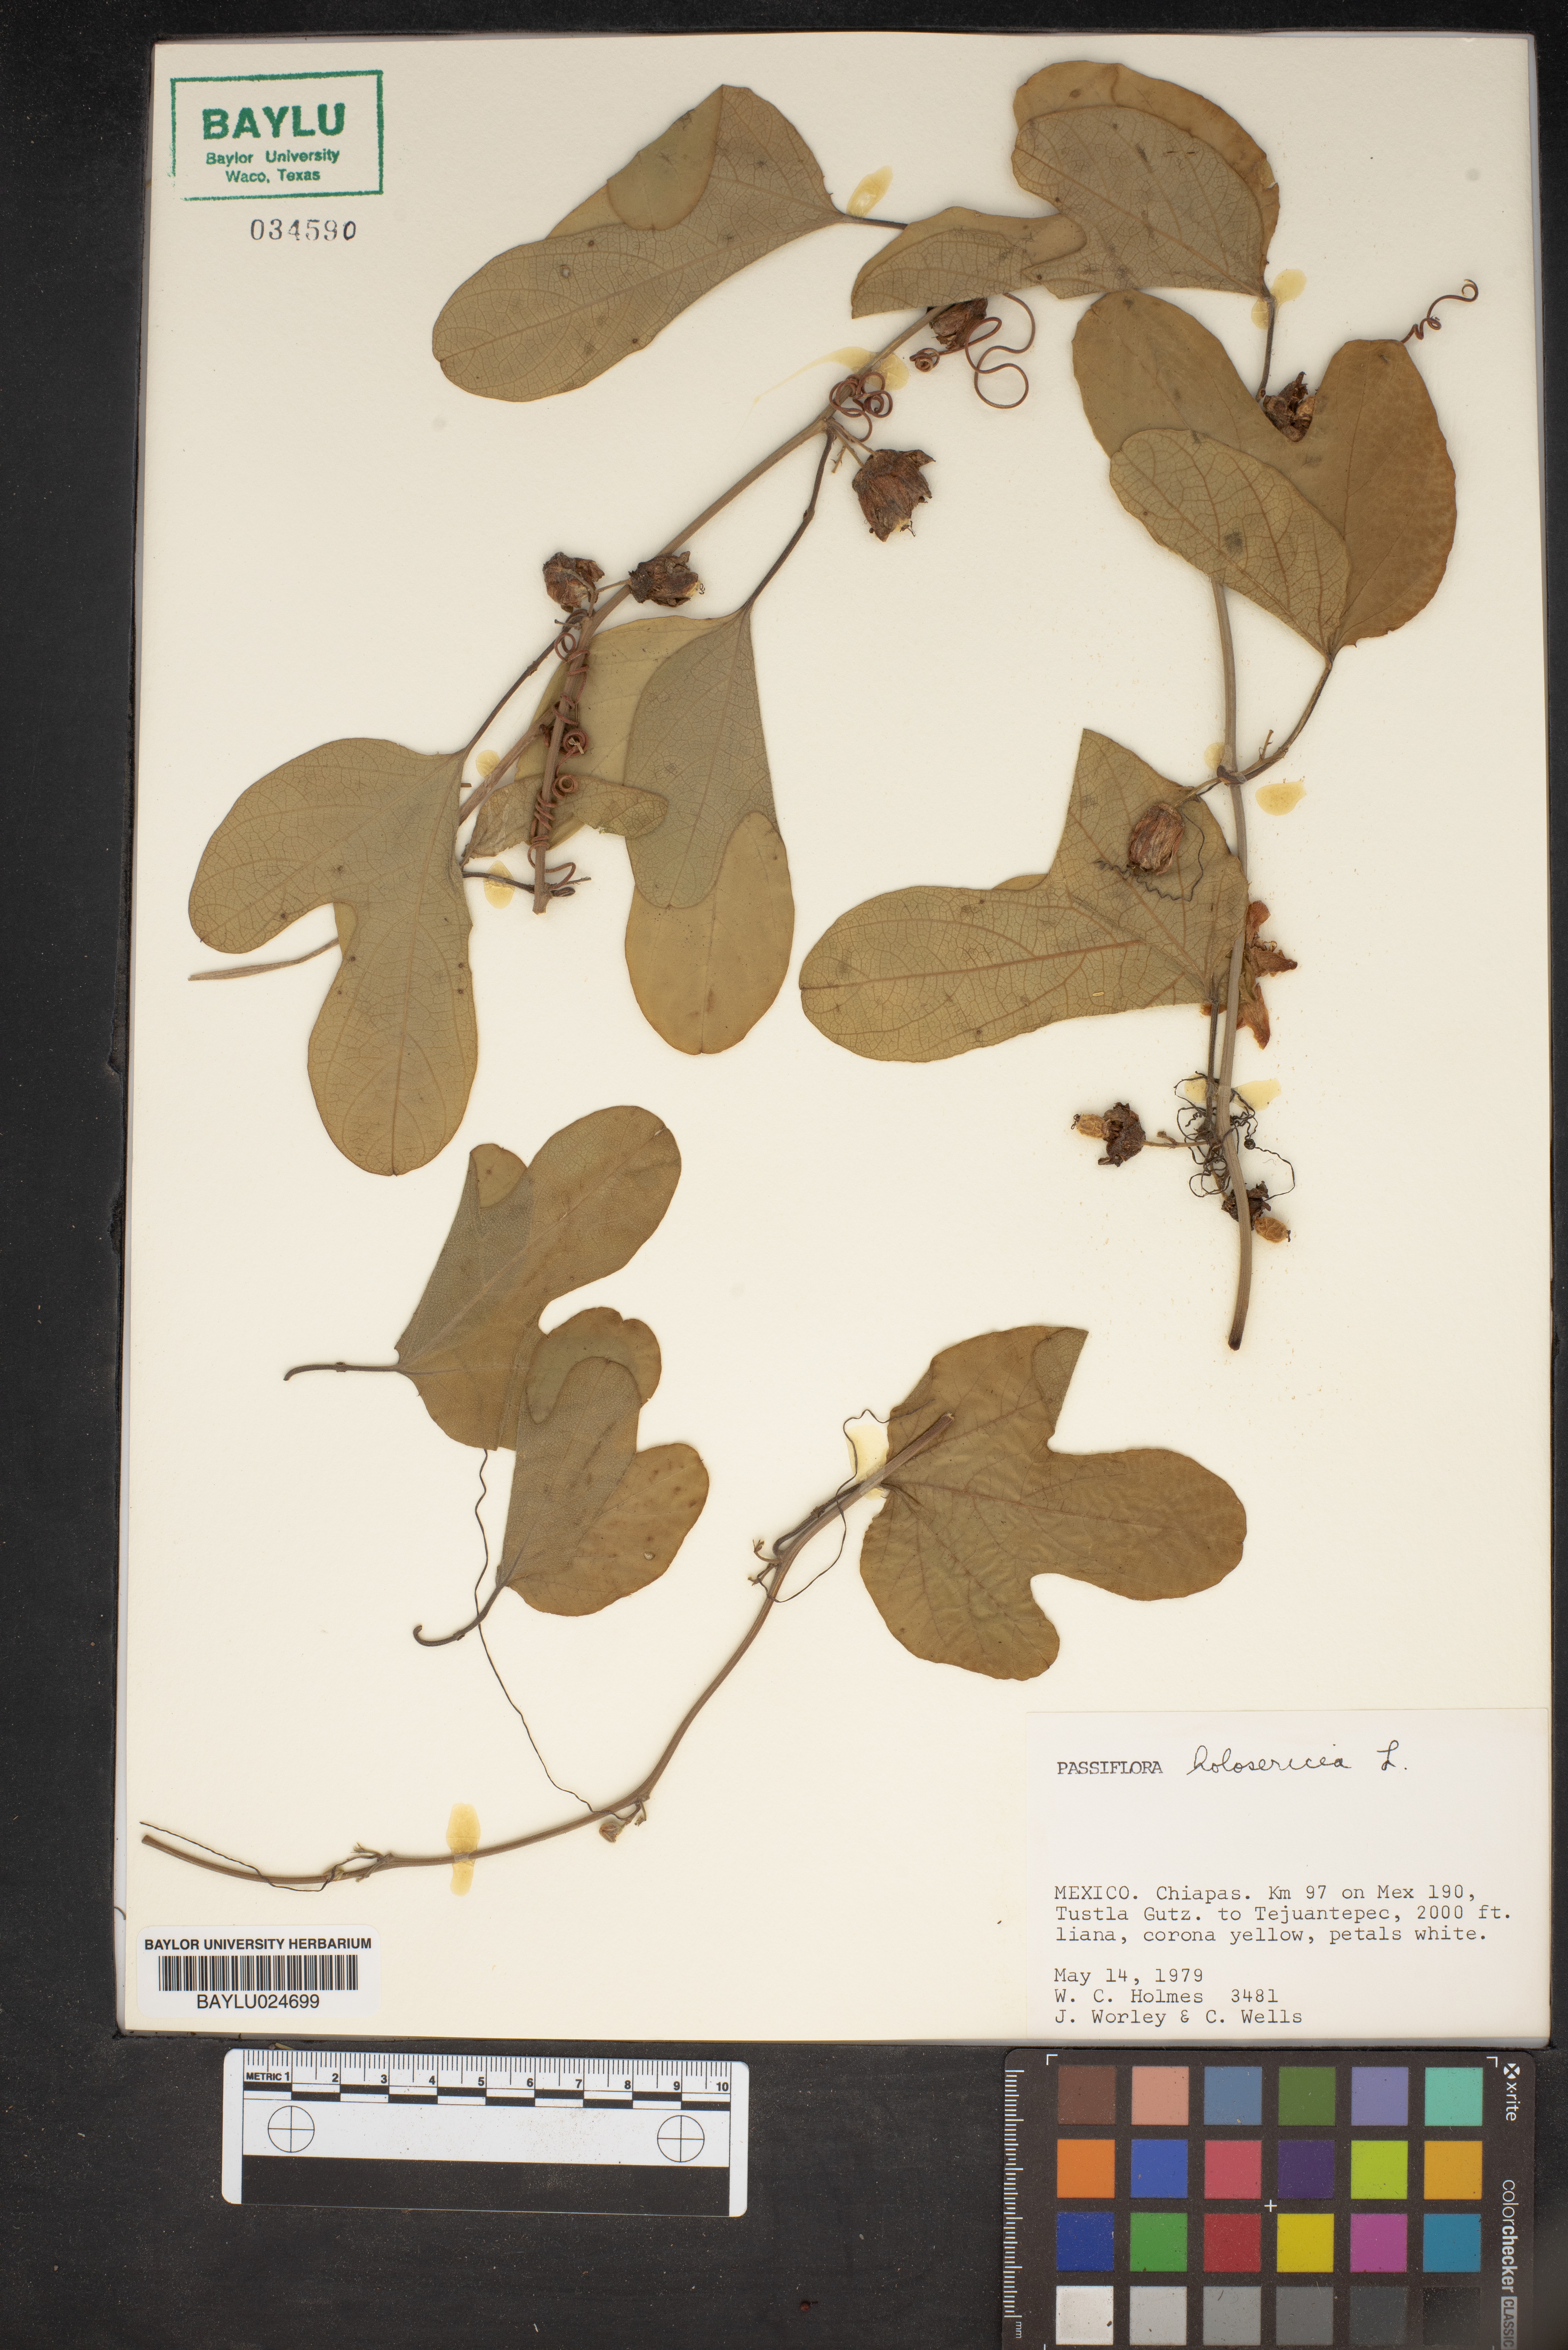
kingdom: Plantae
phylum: Tracheophyta
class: Magnoliopsida
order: Malpighiales
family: Passifloraceae
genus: Passiflora
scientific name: Passiflora holosericea
